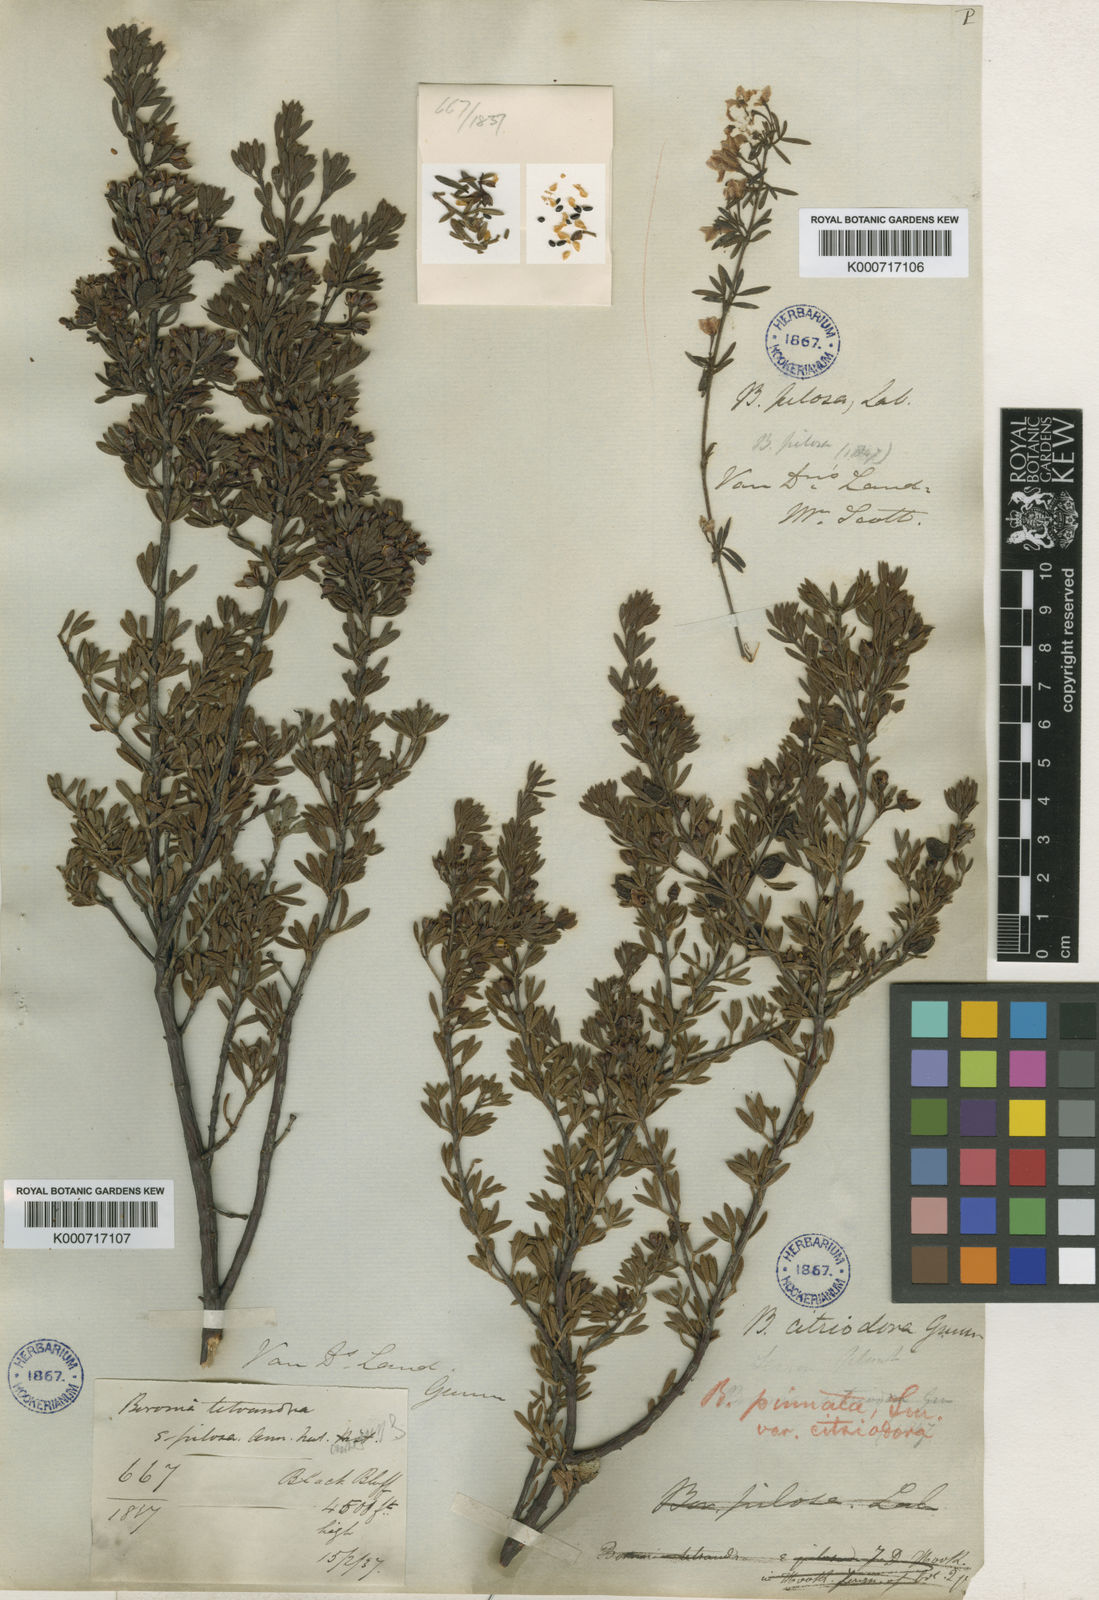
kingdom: Plantae
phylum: Tracheophyta
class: Magnoliopsida
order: Sapindales
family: Rutaceae
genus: Boronia
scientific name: Boronia citriodora
